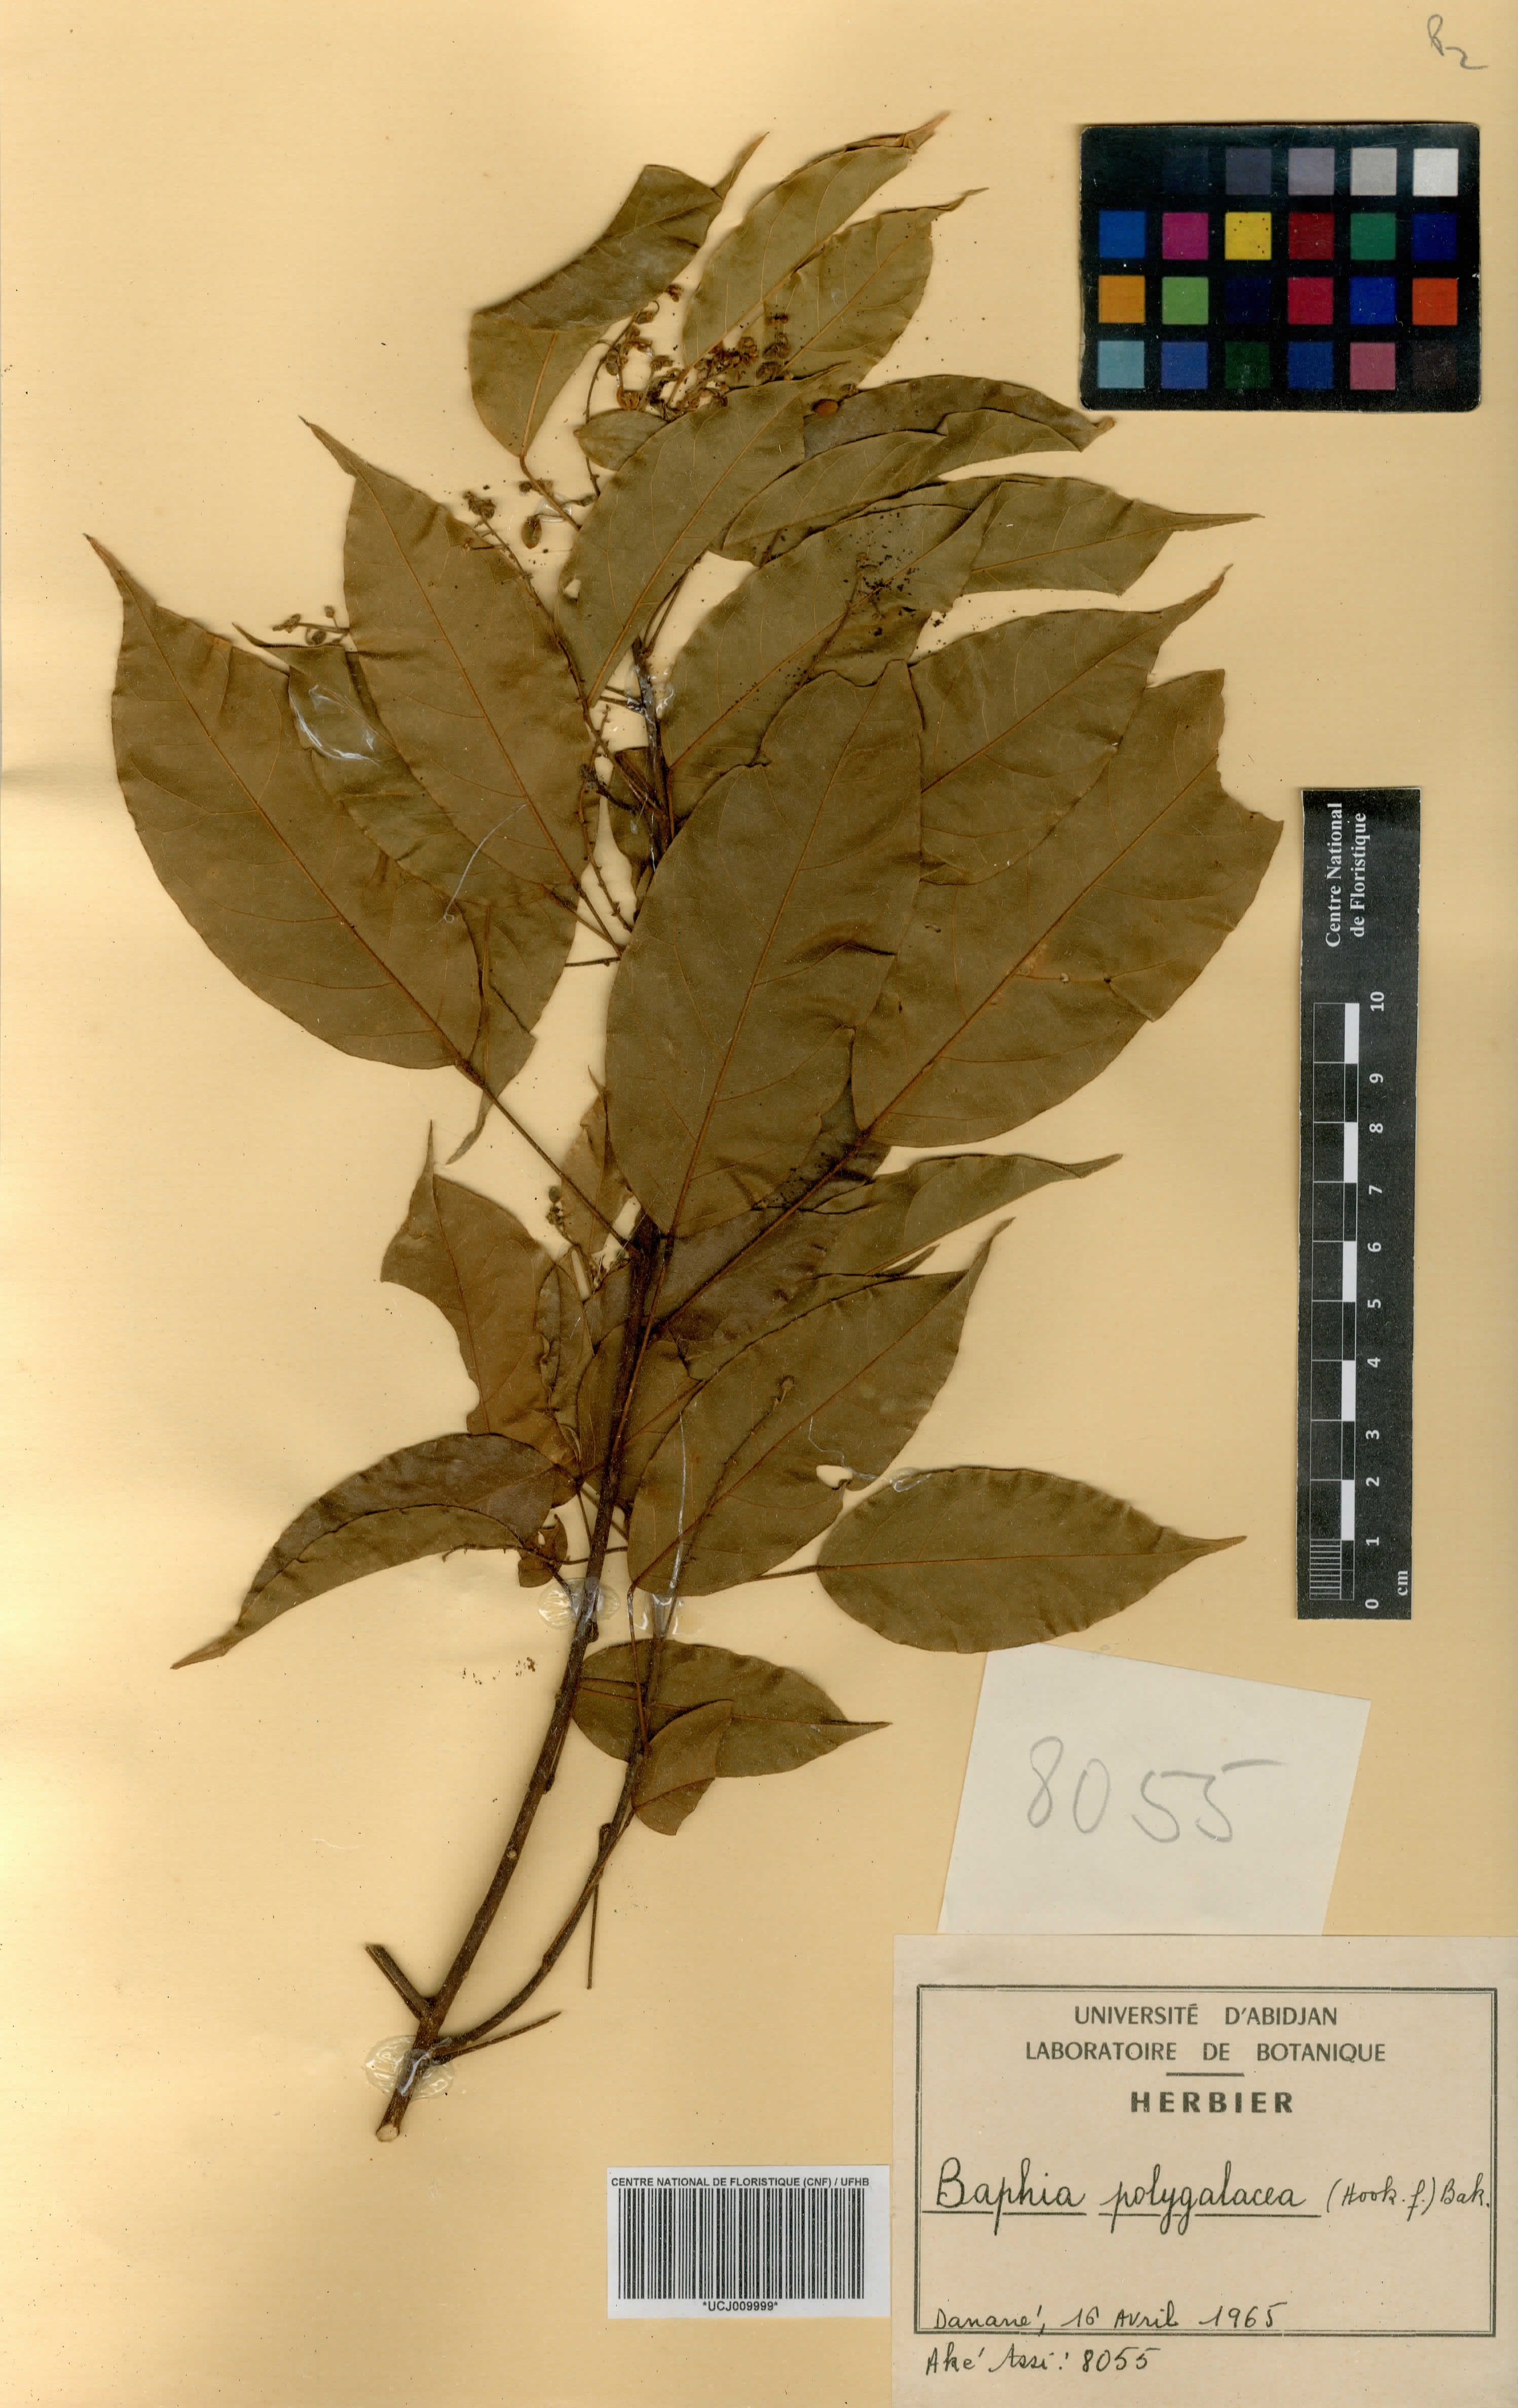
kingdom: Plantae
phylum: Tracheophyta
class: Magnoliopsida
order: Fabales
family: Fabaceae
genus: Baphia
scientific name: Baphia capparidifolia
